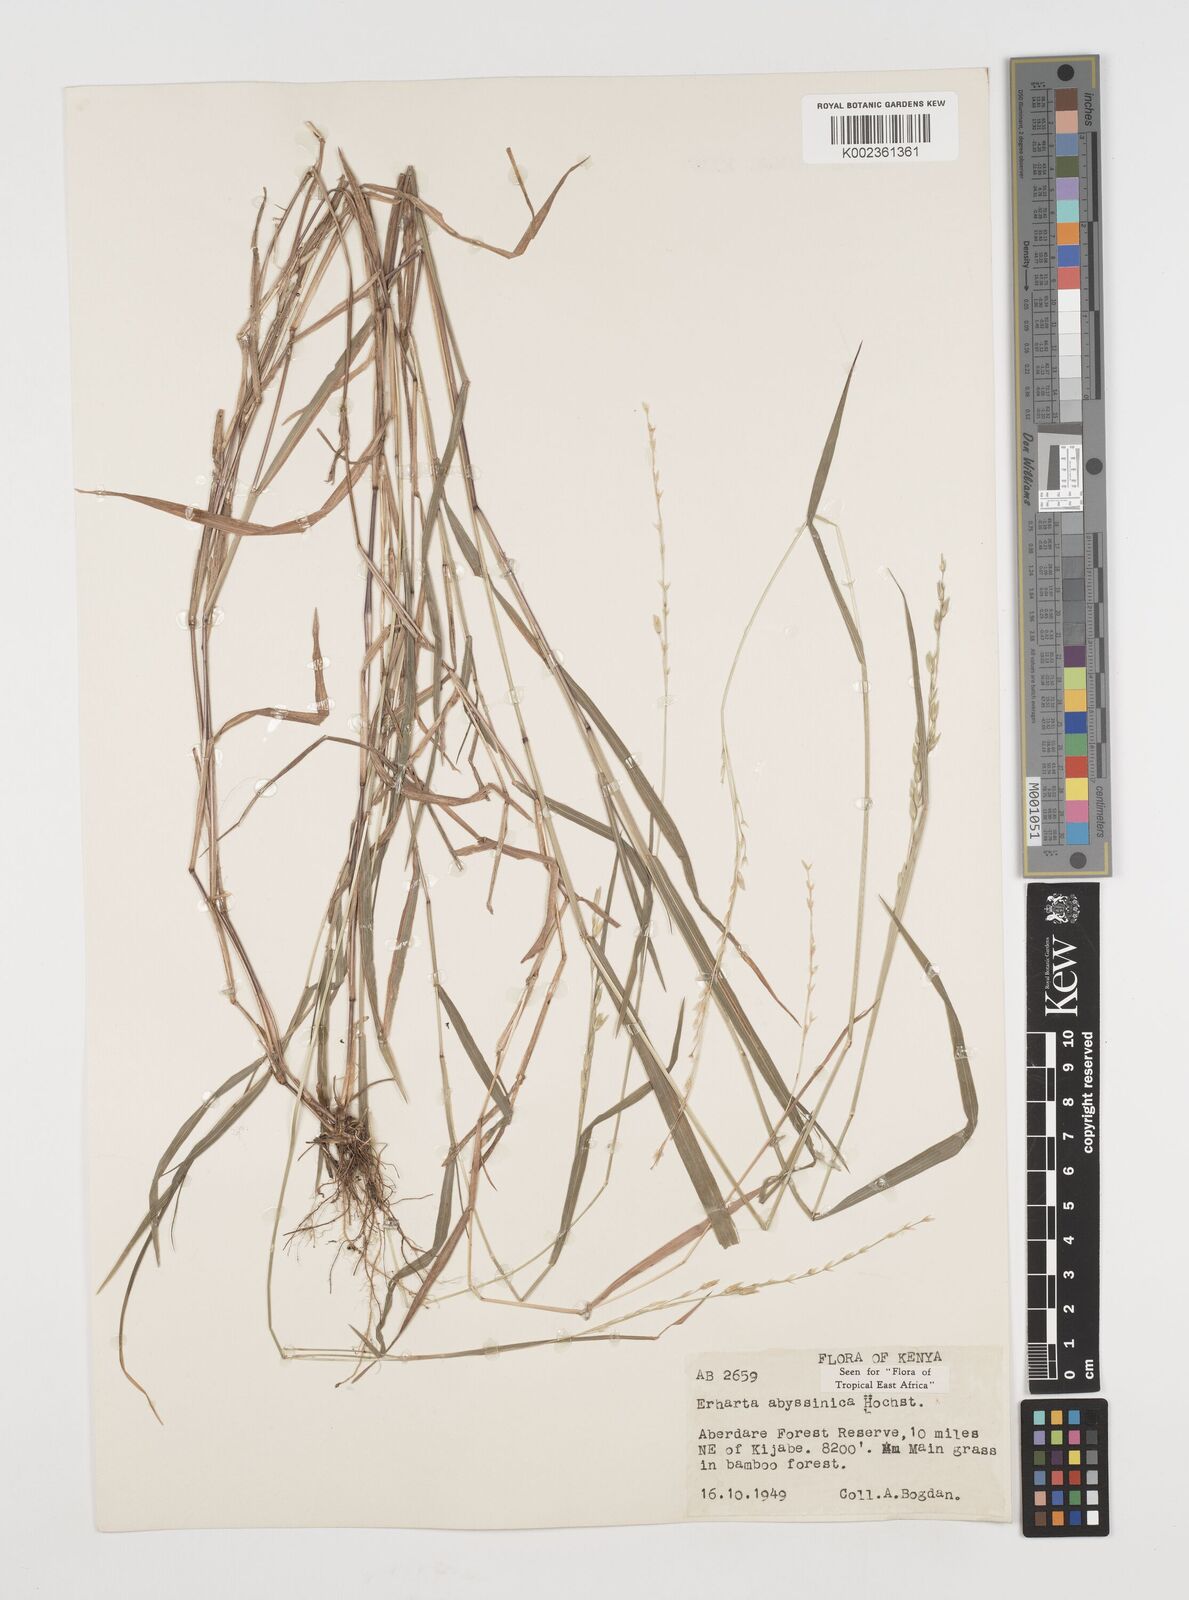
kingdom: Plantae
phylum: Tracheophyta
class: Liliopsida
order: Poales
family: Poaceae
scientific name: Poaceae
